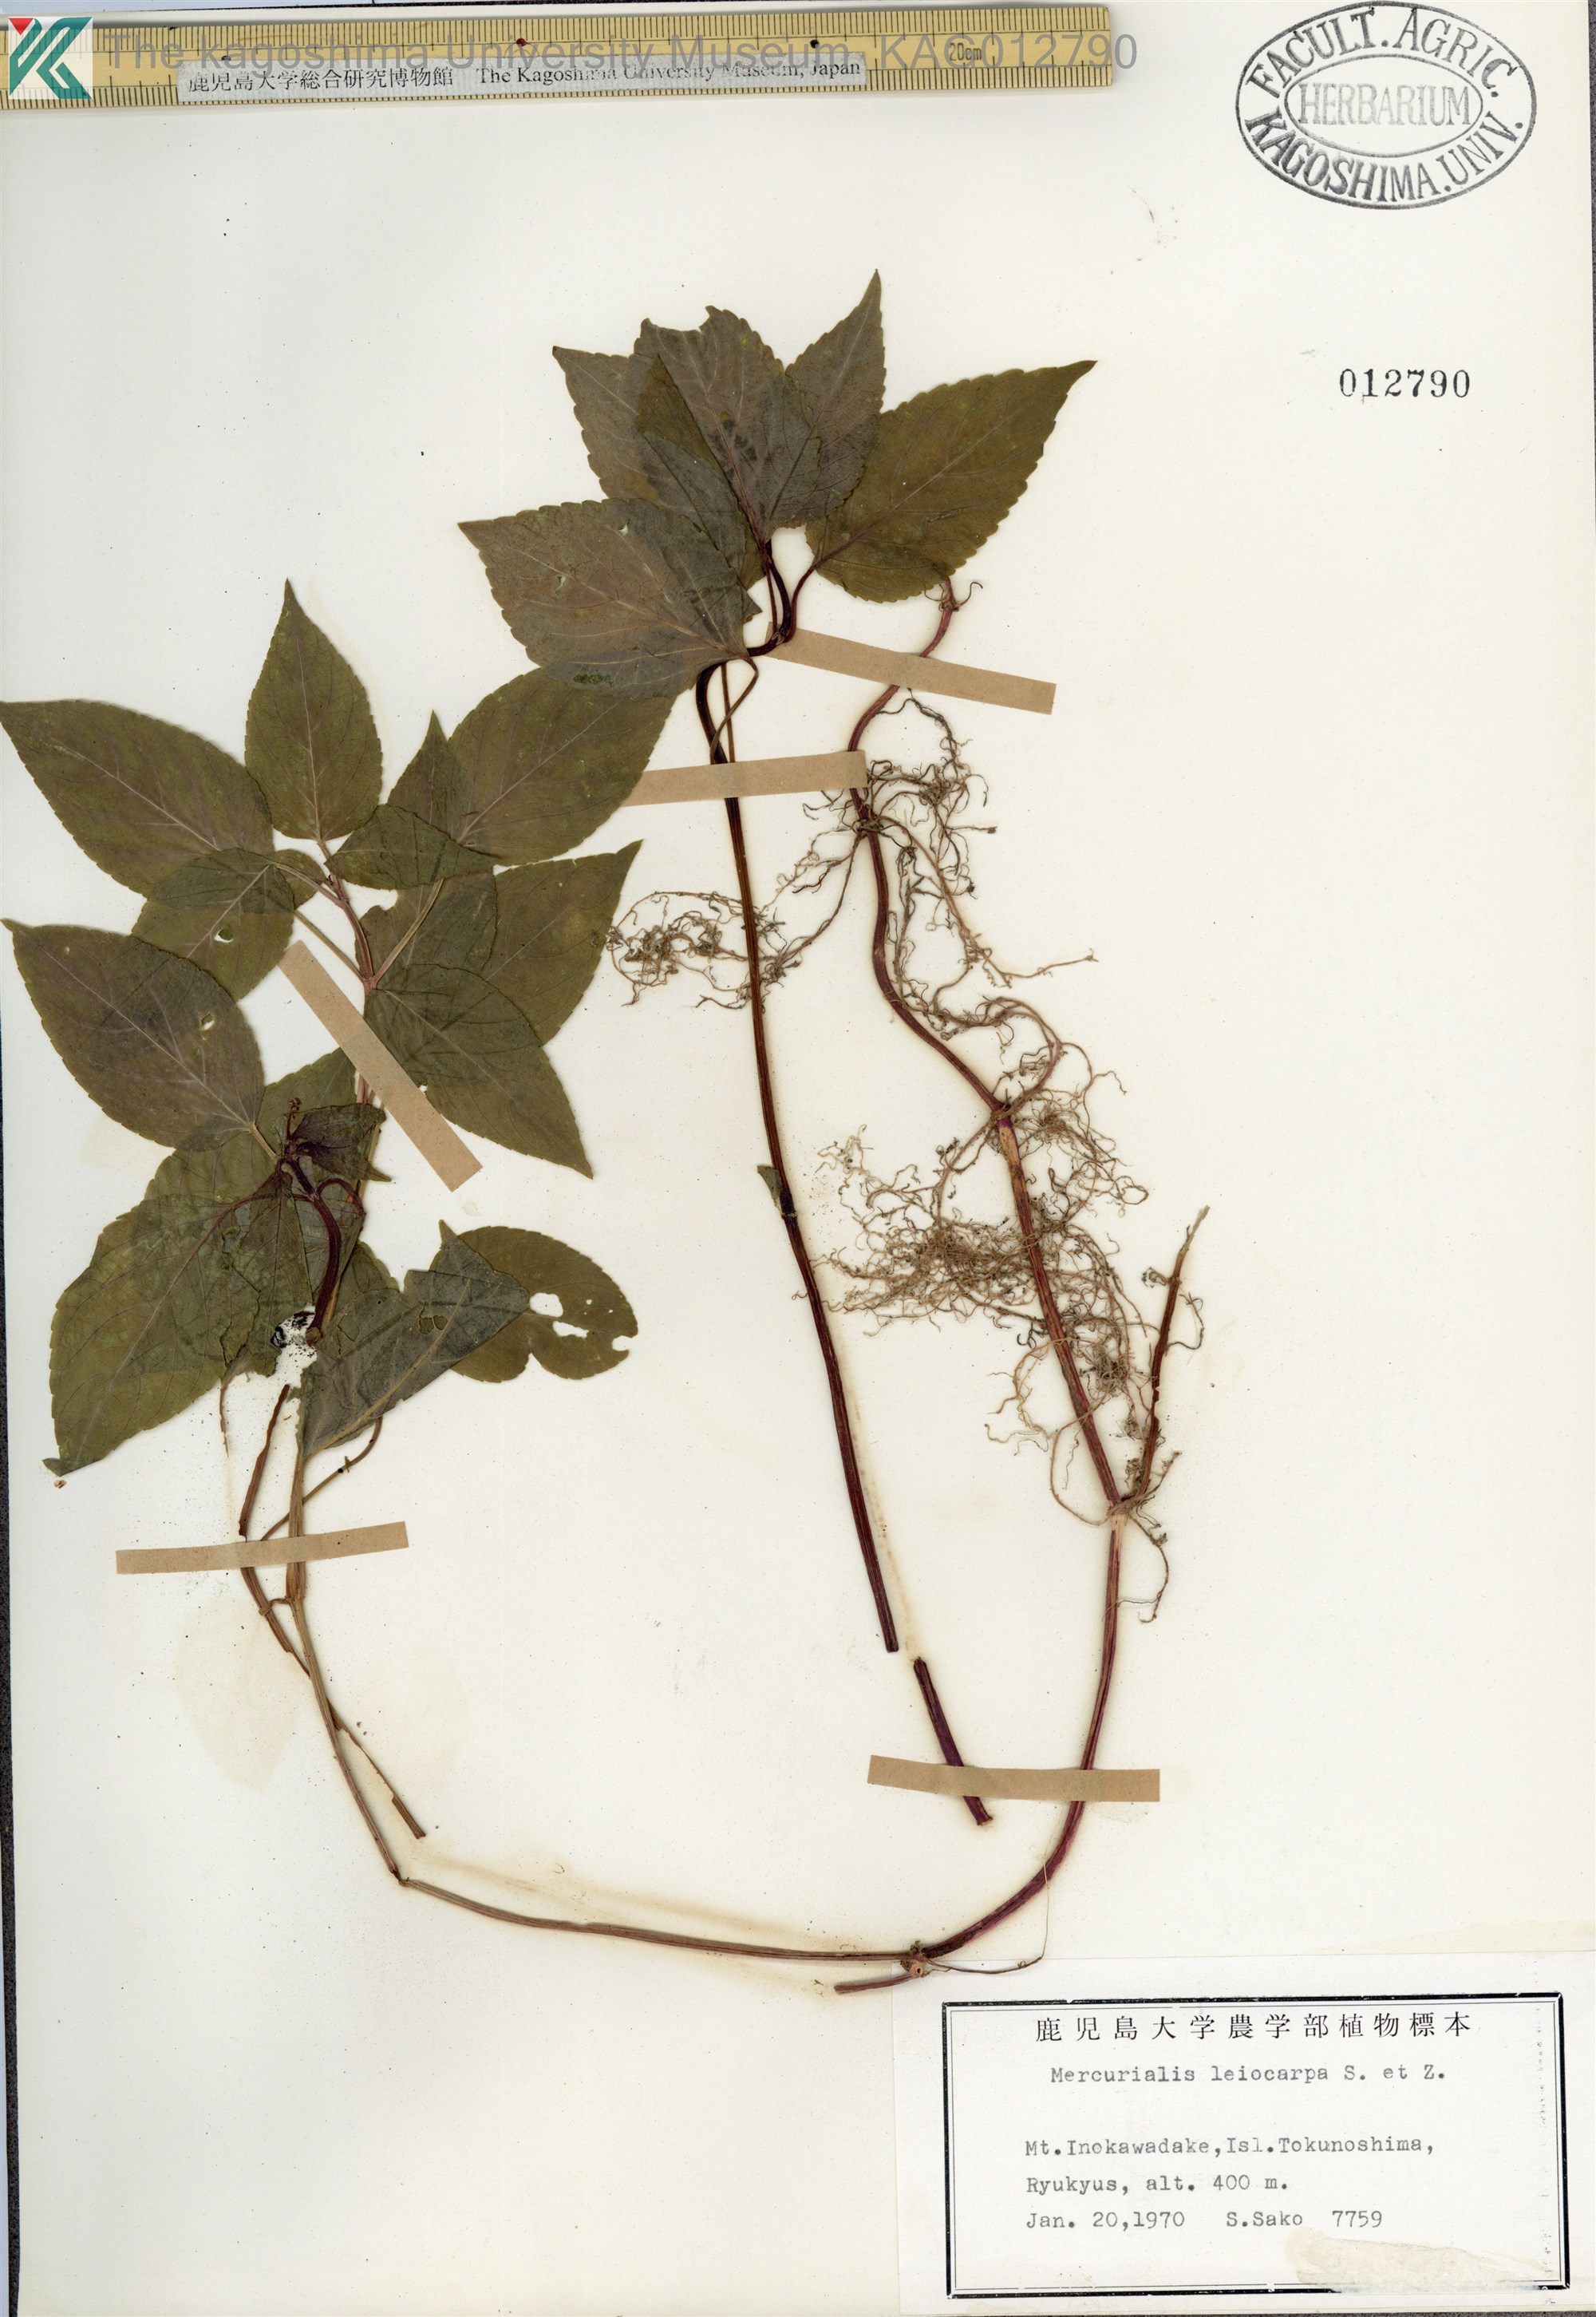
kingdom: Plantae
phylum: Tracheophyta
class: Magnoliopsida
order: Malpighiales
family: Euphorbiaceae
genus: Mercurialis
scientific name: Mercurialis leiocarpa
